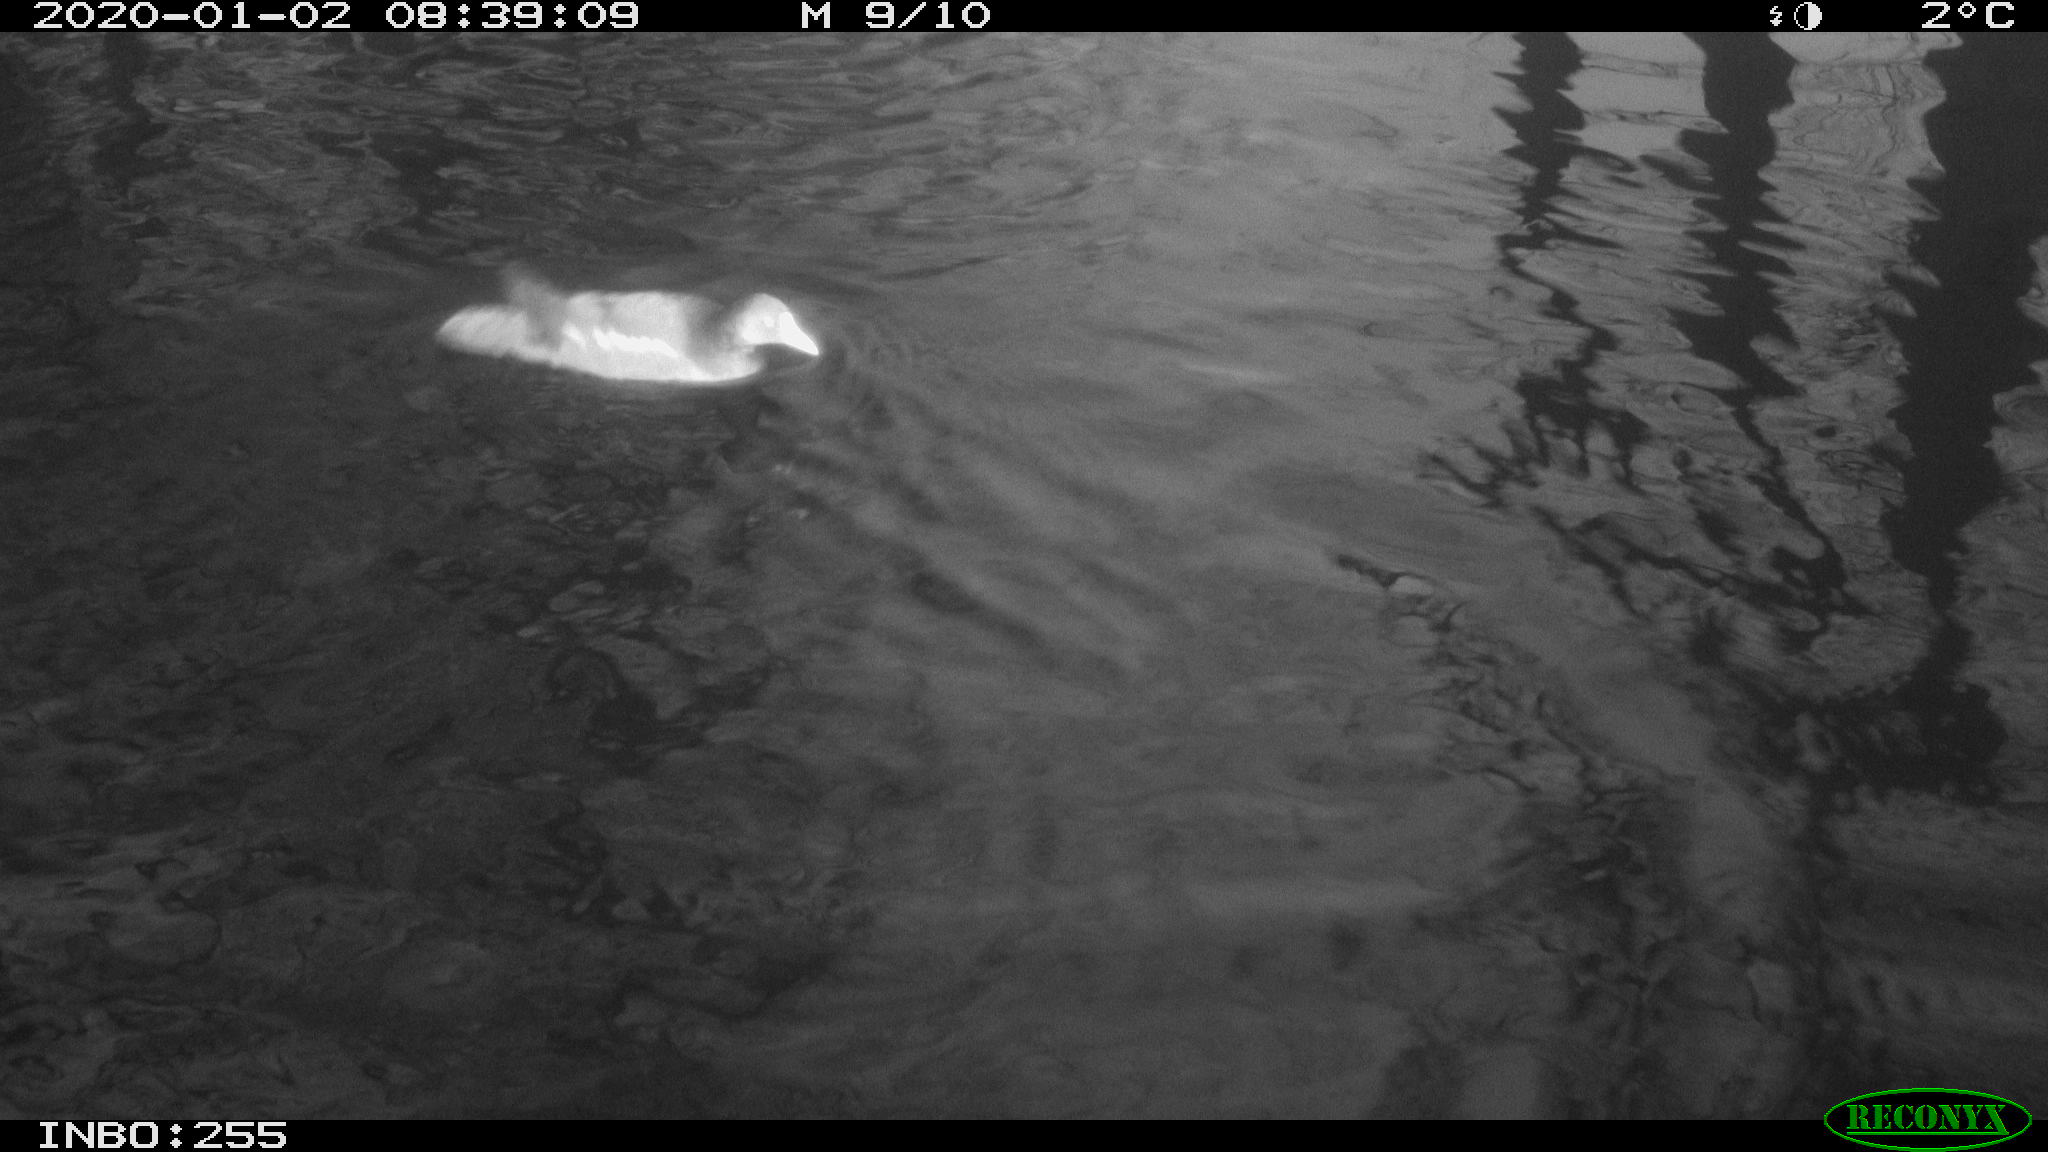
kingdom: Animalia
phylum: Chordata
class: Aves
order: Gruiformes
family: Rallidae
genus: Gallinula
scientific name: Gallinula chloropus
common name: Common moorhen
